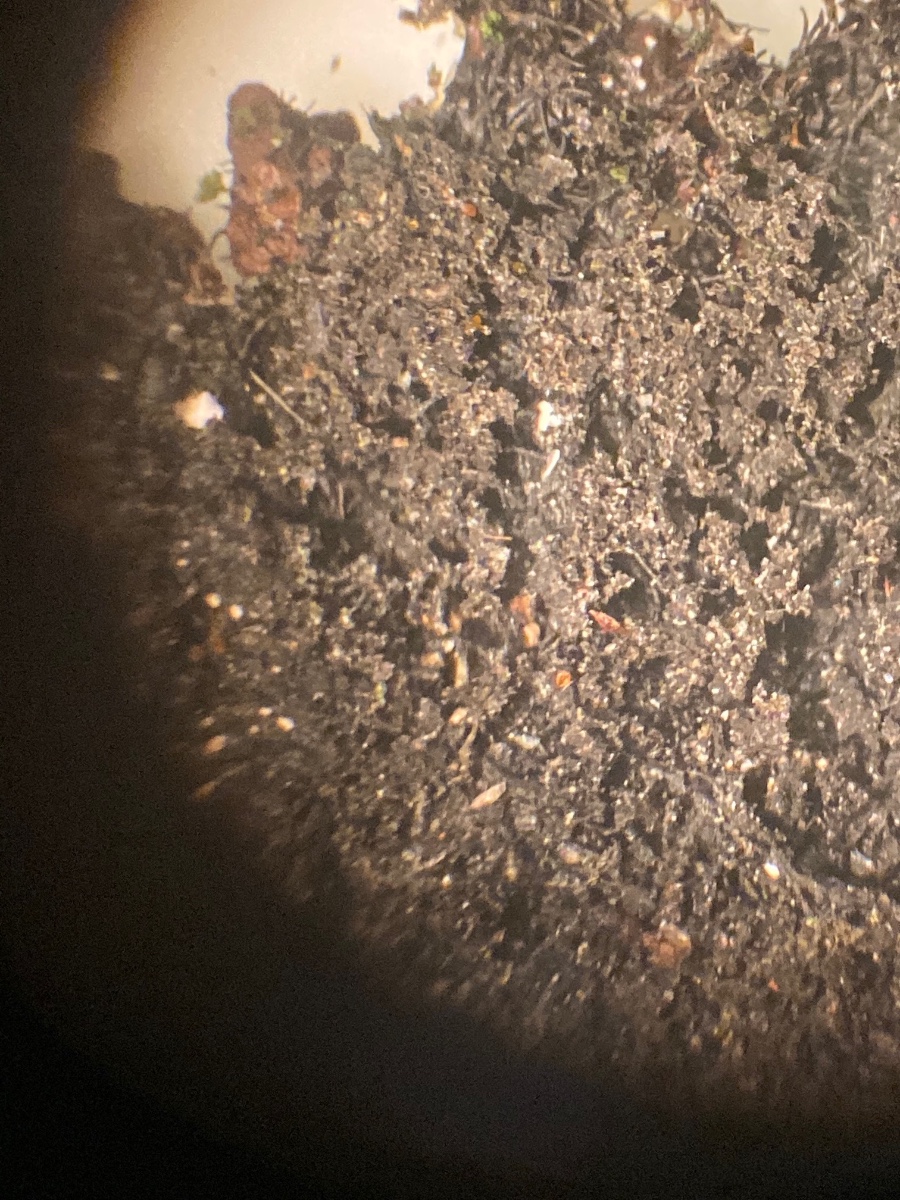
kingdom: Fungi
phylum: Ascomycota
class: Lecanoromycetes
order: Lecanorales
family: Parmeliaceae
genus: Parmelia
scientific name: Parmelia saxatilis
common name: farve-skållav
